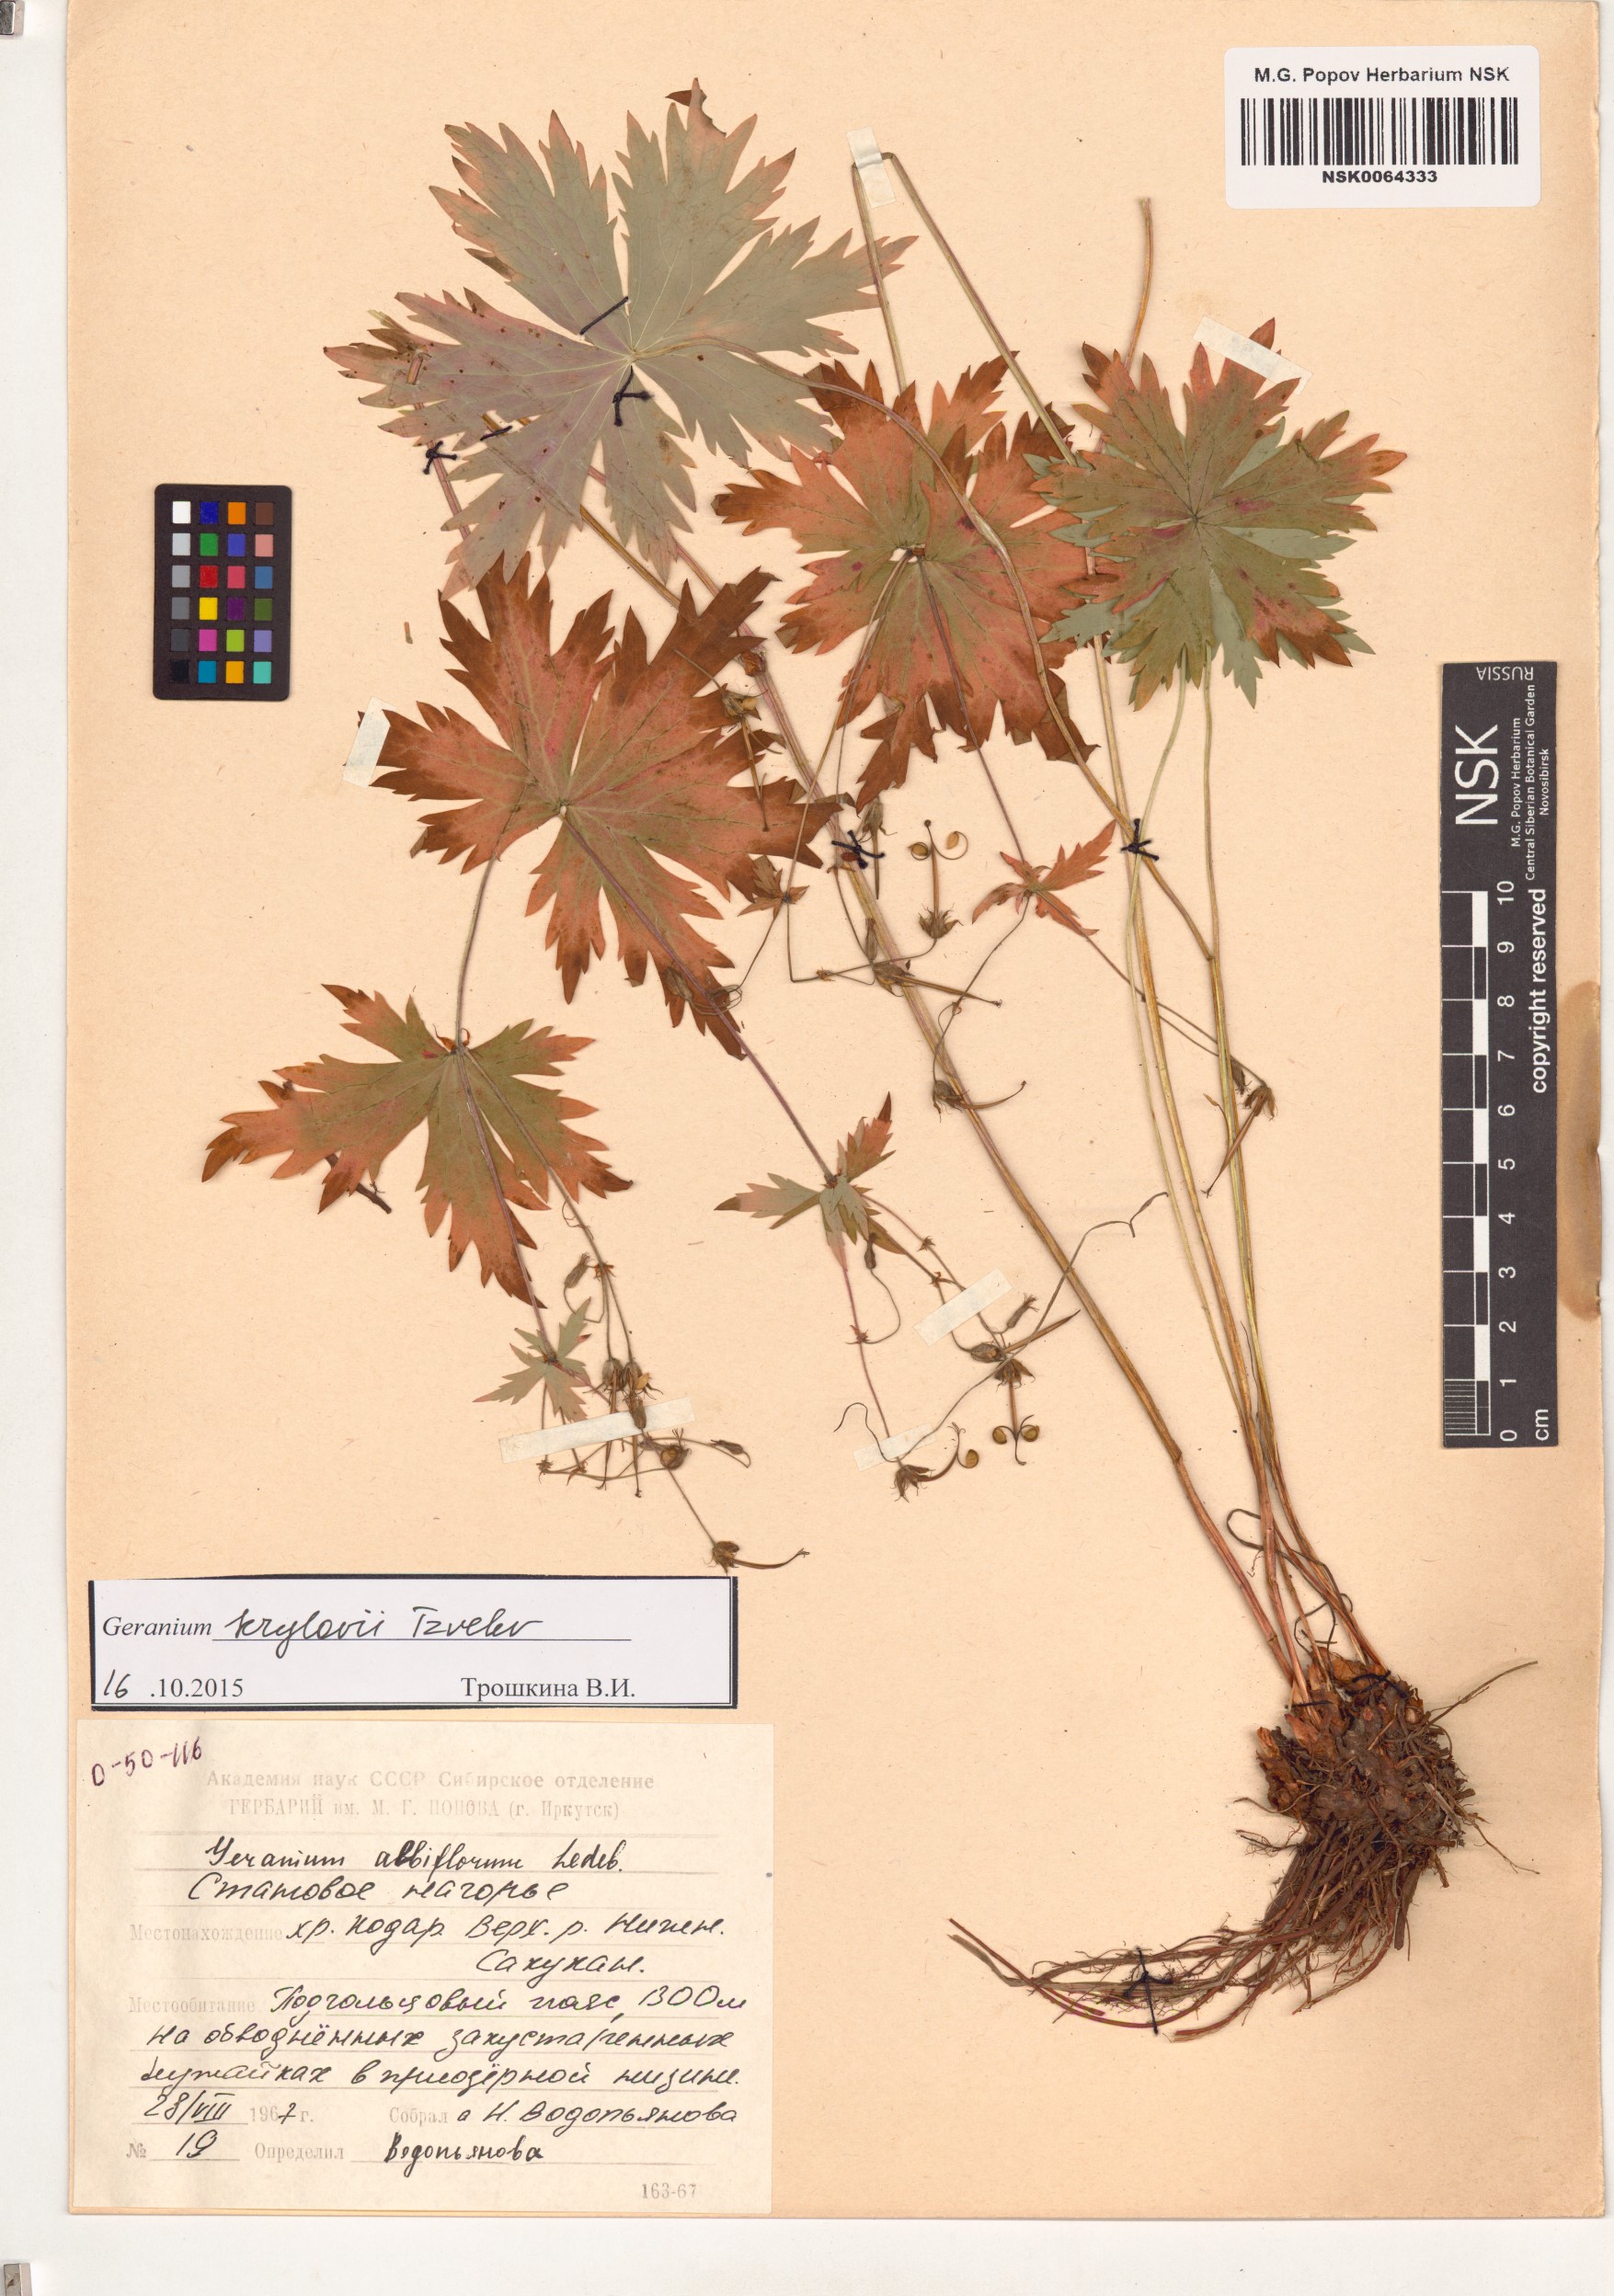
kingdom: Plantae
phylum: Tracheophyta
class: Magnoliopsida
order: Geraniales
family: Geraniaceae
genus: Geranium
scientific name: Geranium sylvaticum
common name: Wood crane's-bill
